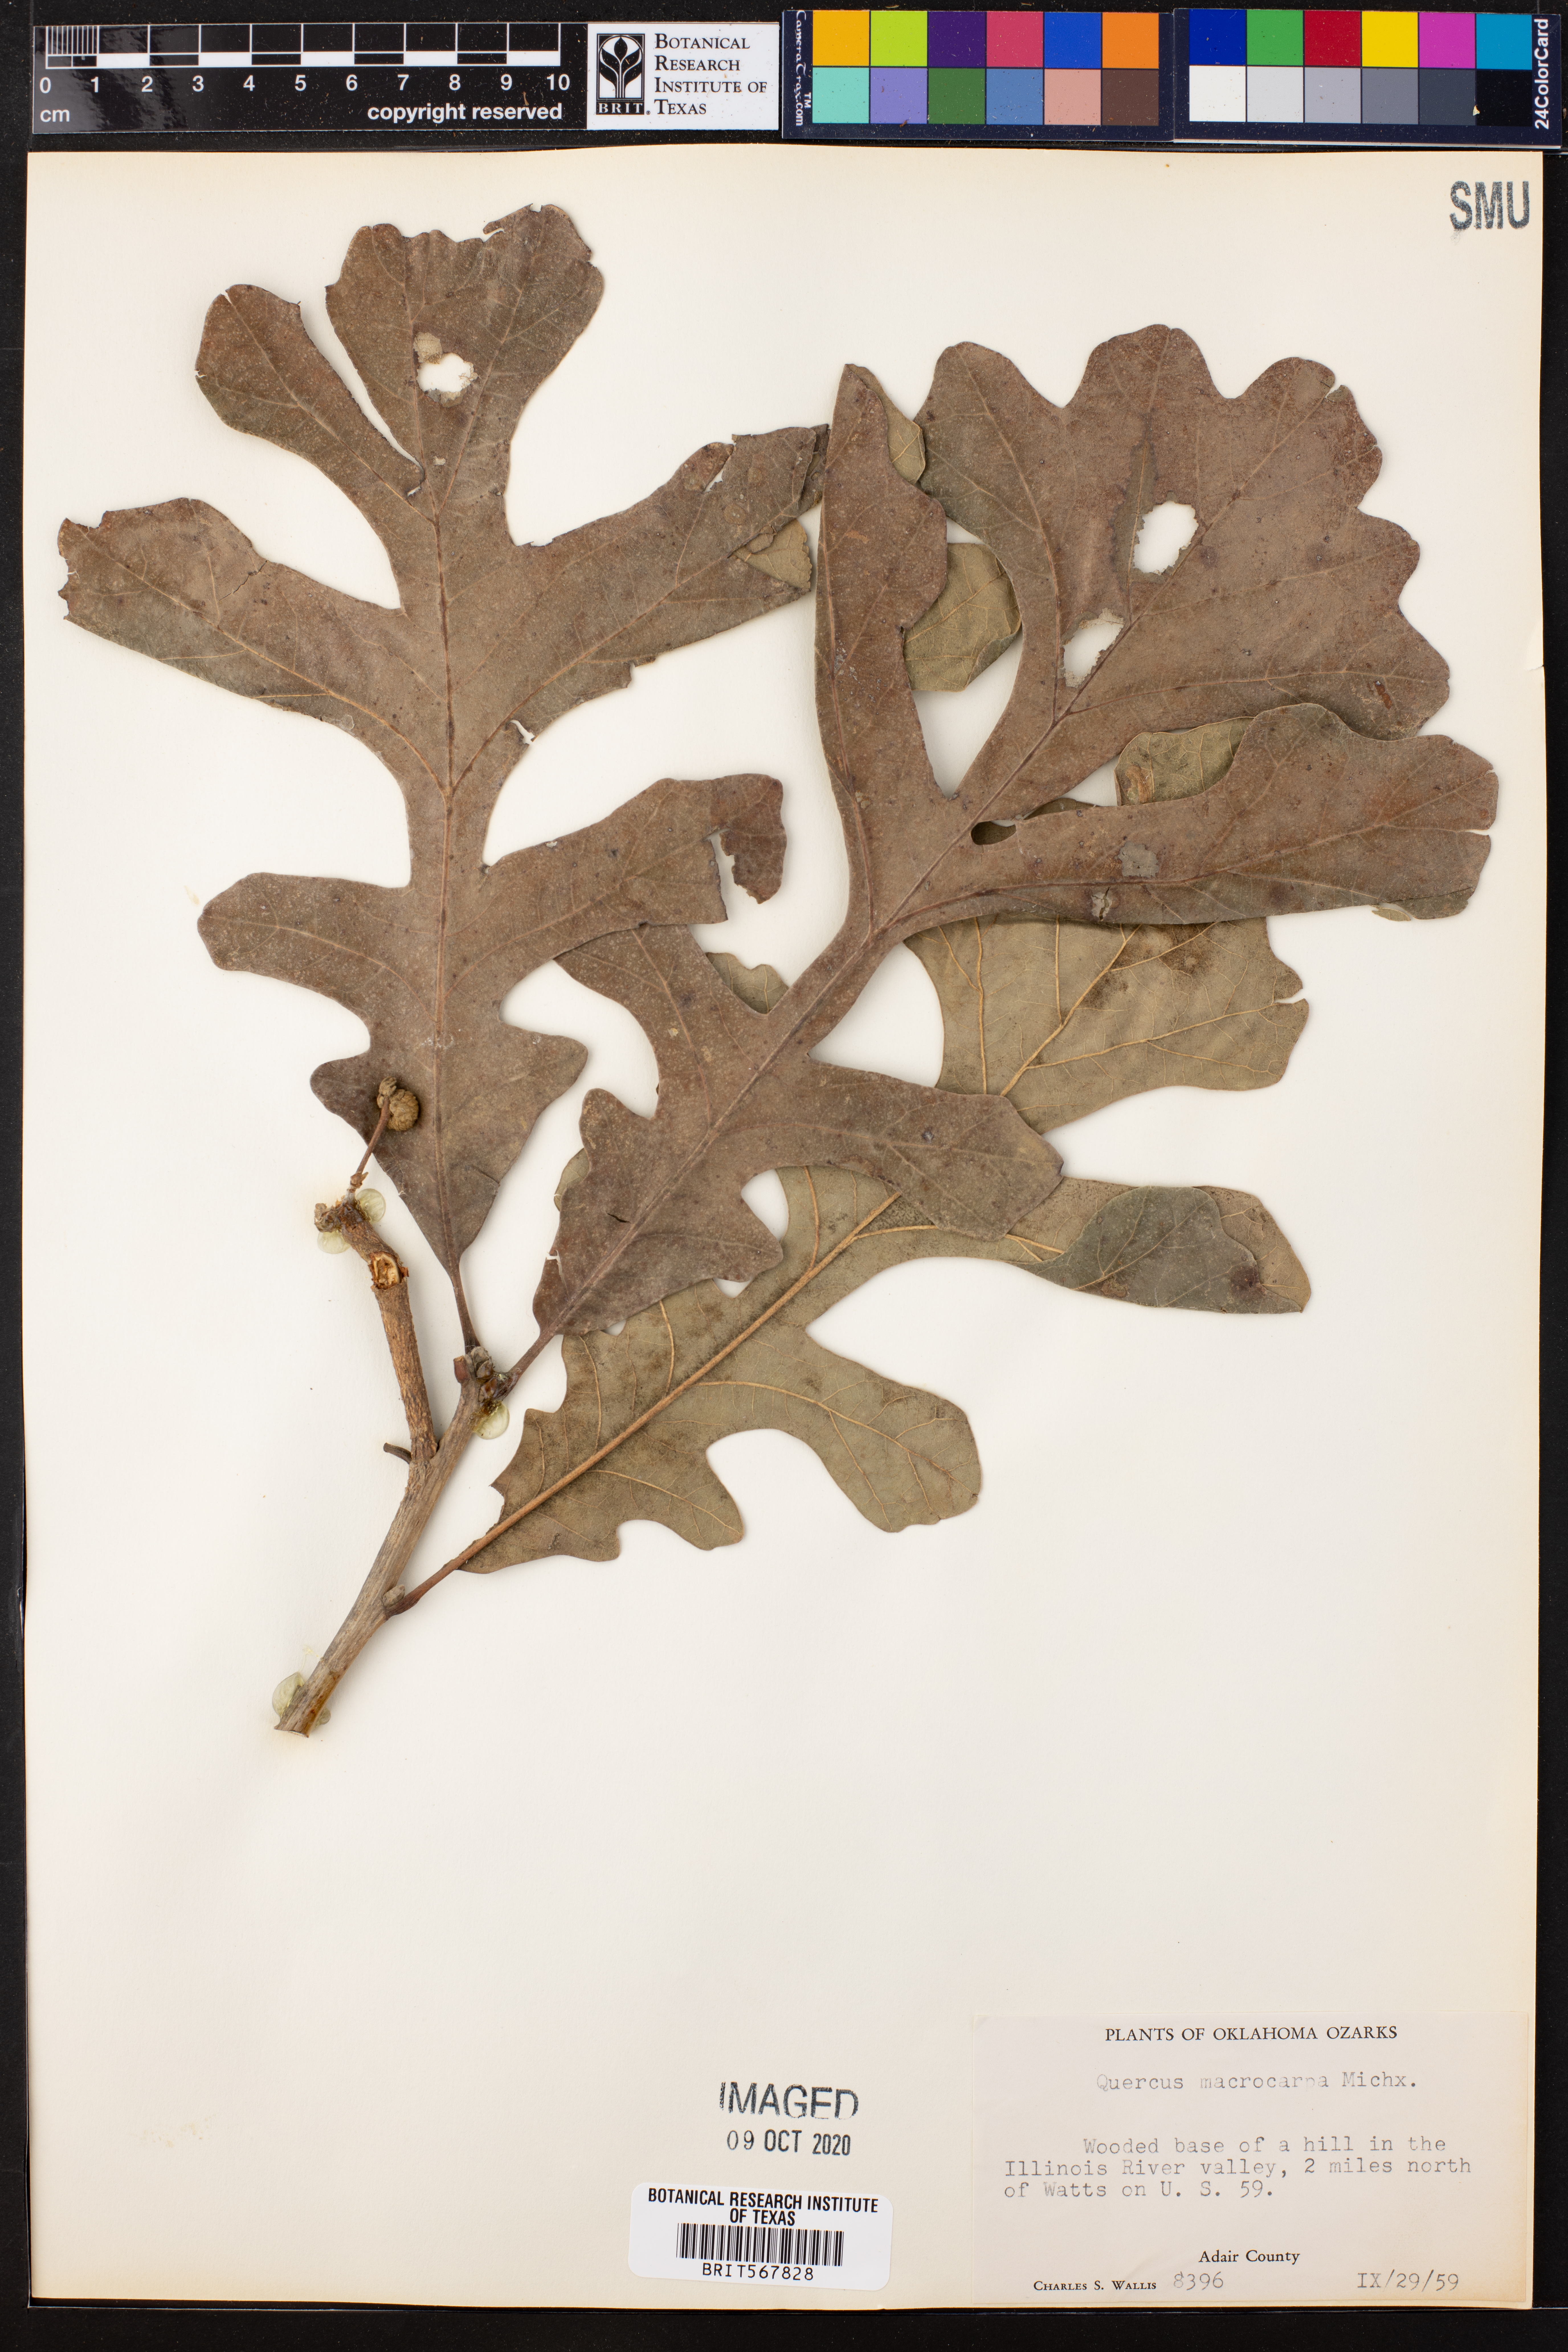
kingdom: Plantae
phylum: Tracheophyta
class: Magnoliopsida
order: Fagales
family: Fagaceae
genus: Quercus
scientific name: Quercus macrocarpa
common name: Bur oak
